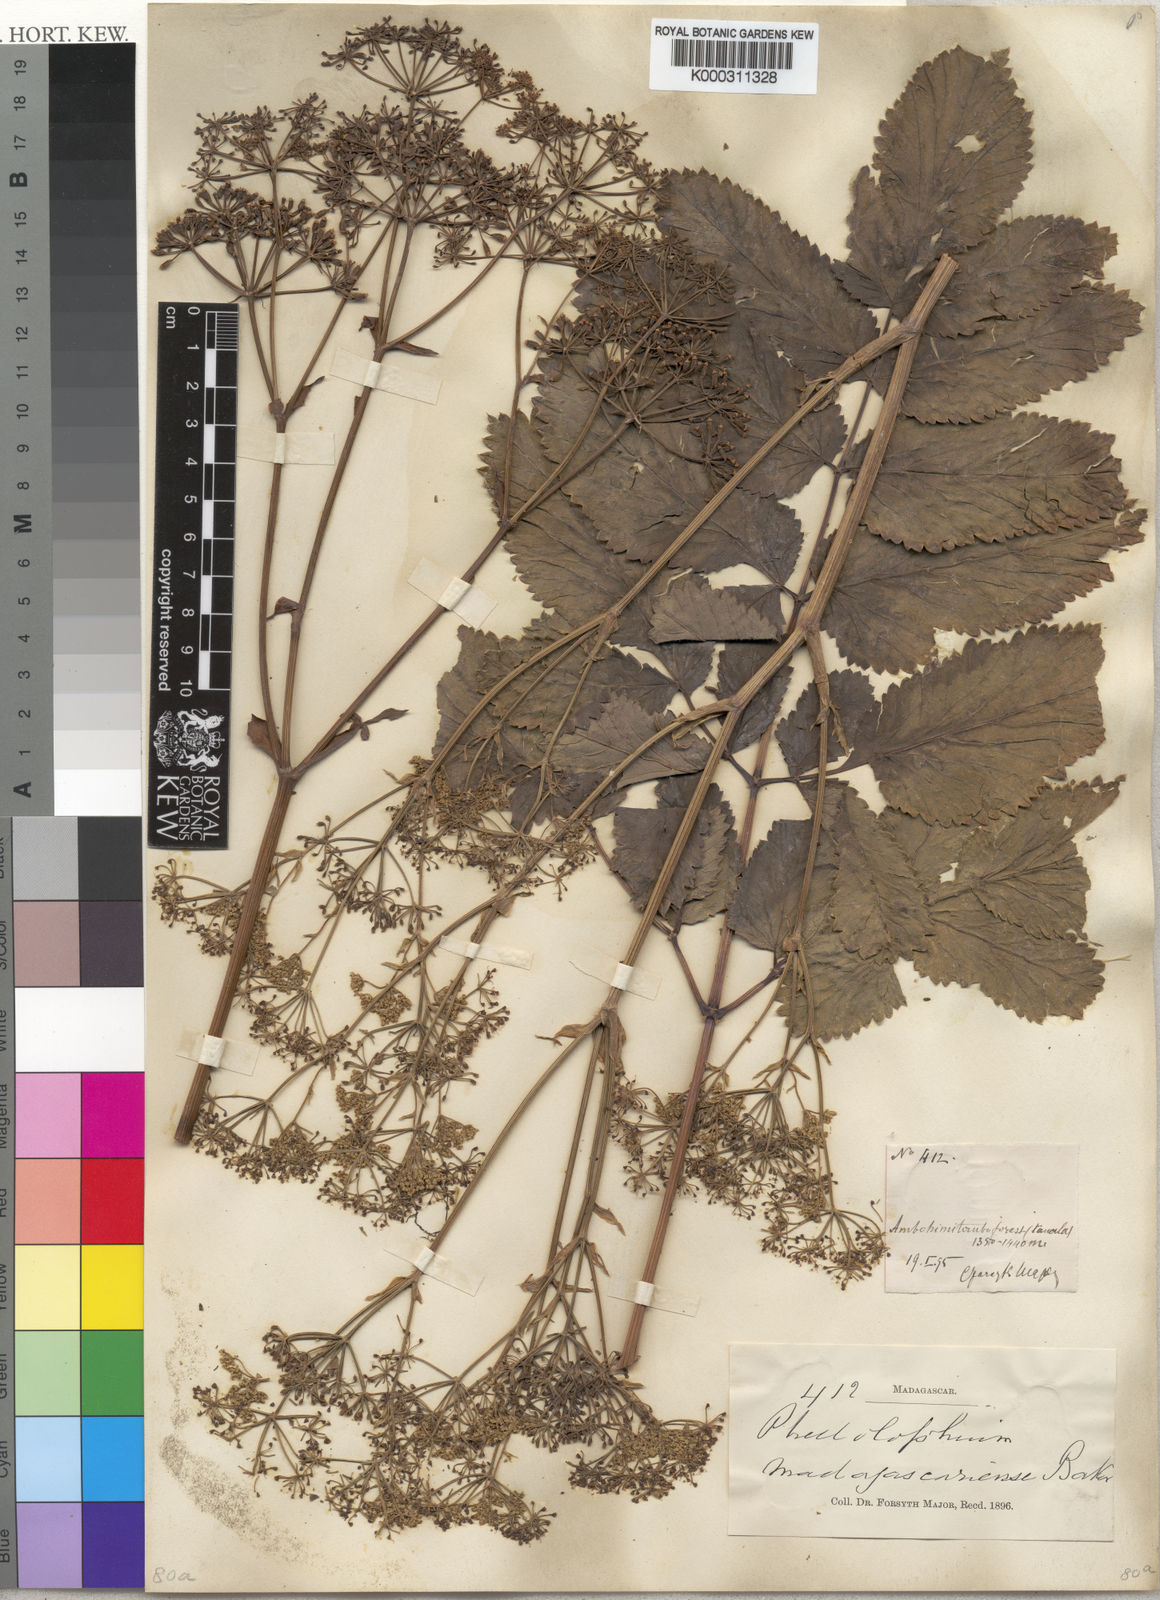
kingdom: Plantae
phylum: Tracheophyta
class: Magnoliopsida
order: Apiales
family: Apiaceae
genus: Phellolophium
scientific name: Phellolophium madagascariense
